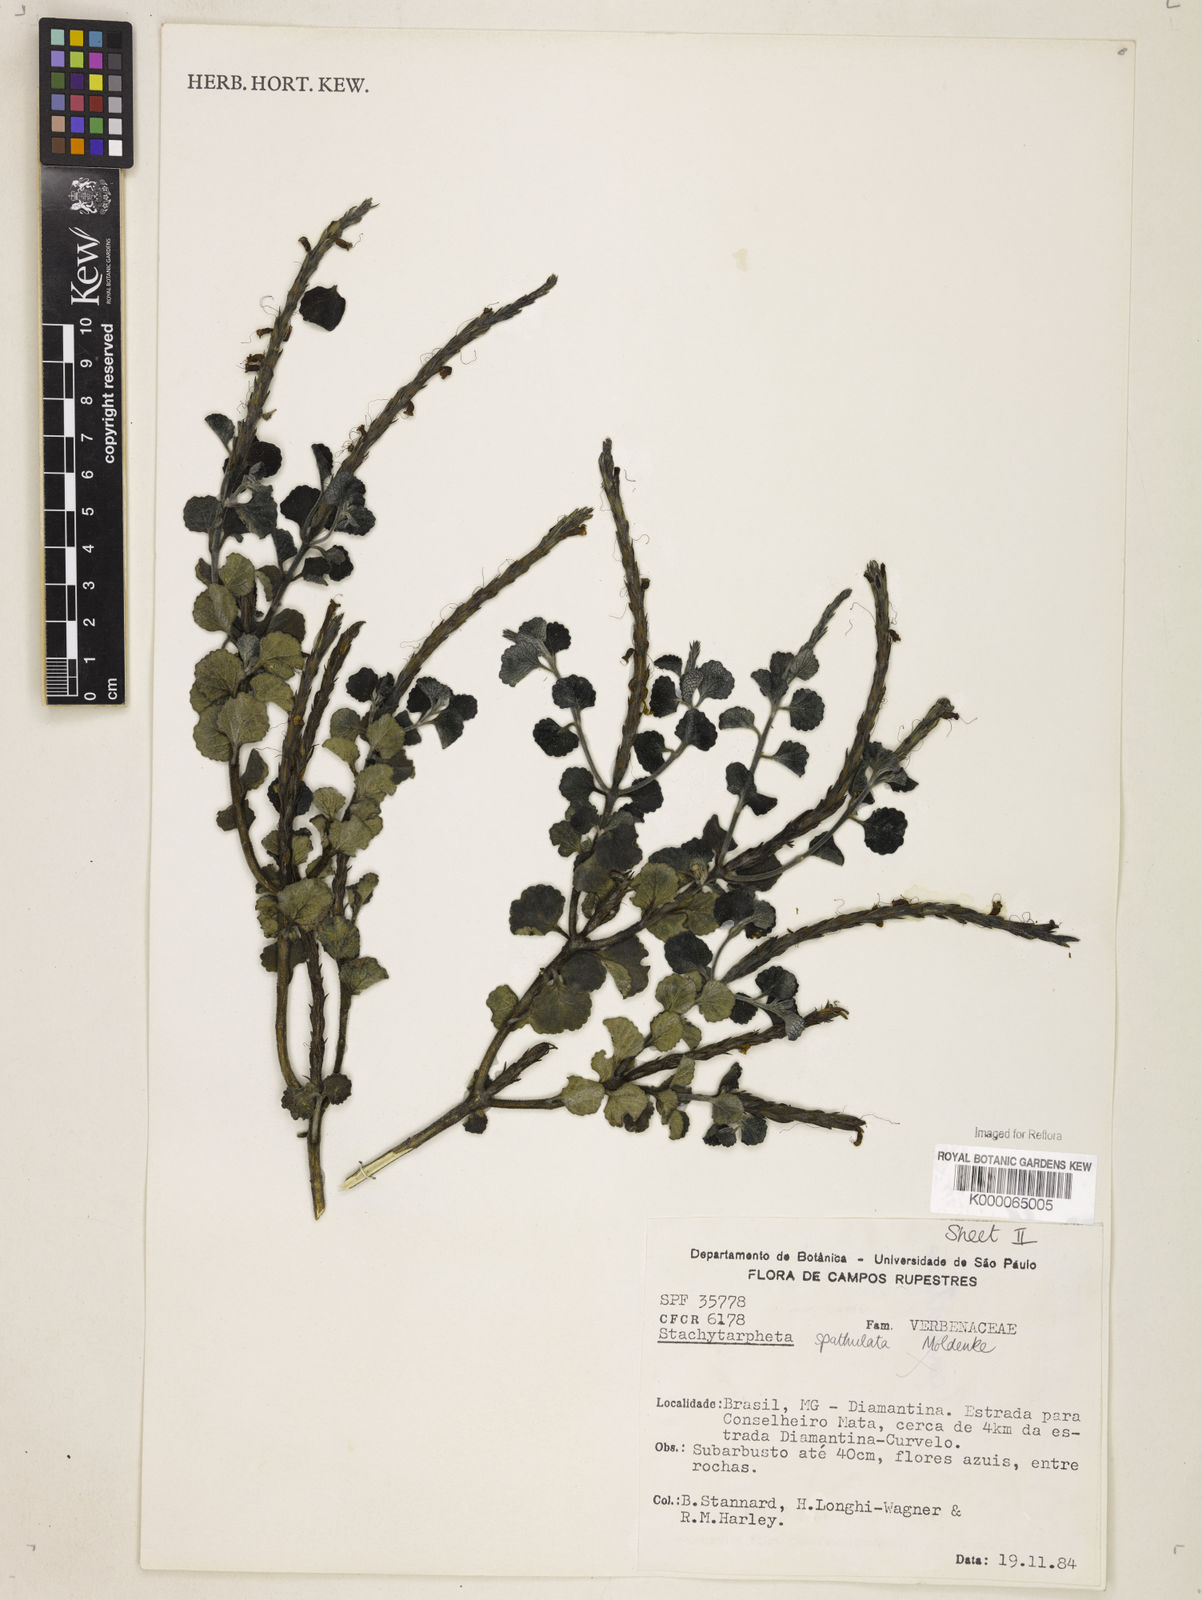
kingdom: Plantae
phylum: Tracheophyta
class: Magnoliopsida
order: Lamiales
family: Verbenaceae
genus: Stachytarpheta
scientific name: Stachytarpheta spathulata
